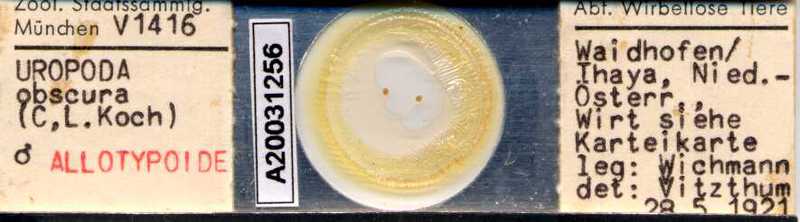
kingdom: Animalia
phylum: Arthropoda
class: Arachnida
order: Mesostigmata
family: Uropodidae
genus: Uroobovella
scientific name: Uroobovella marginata
